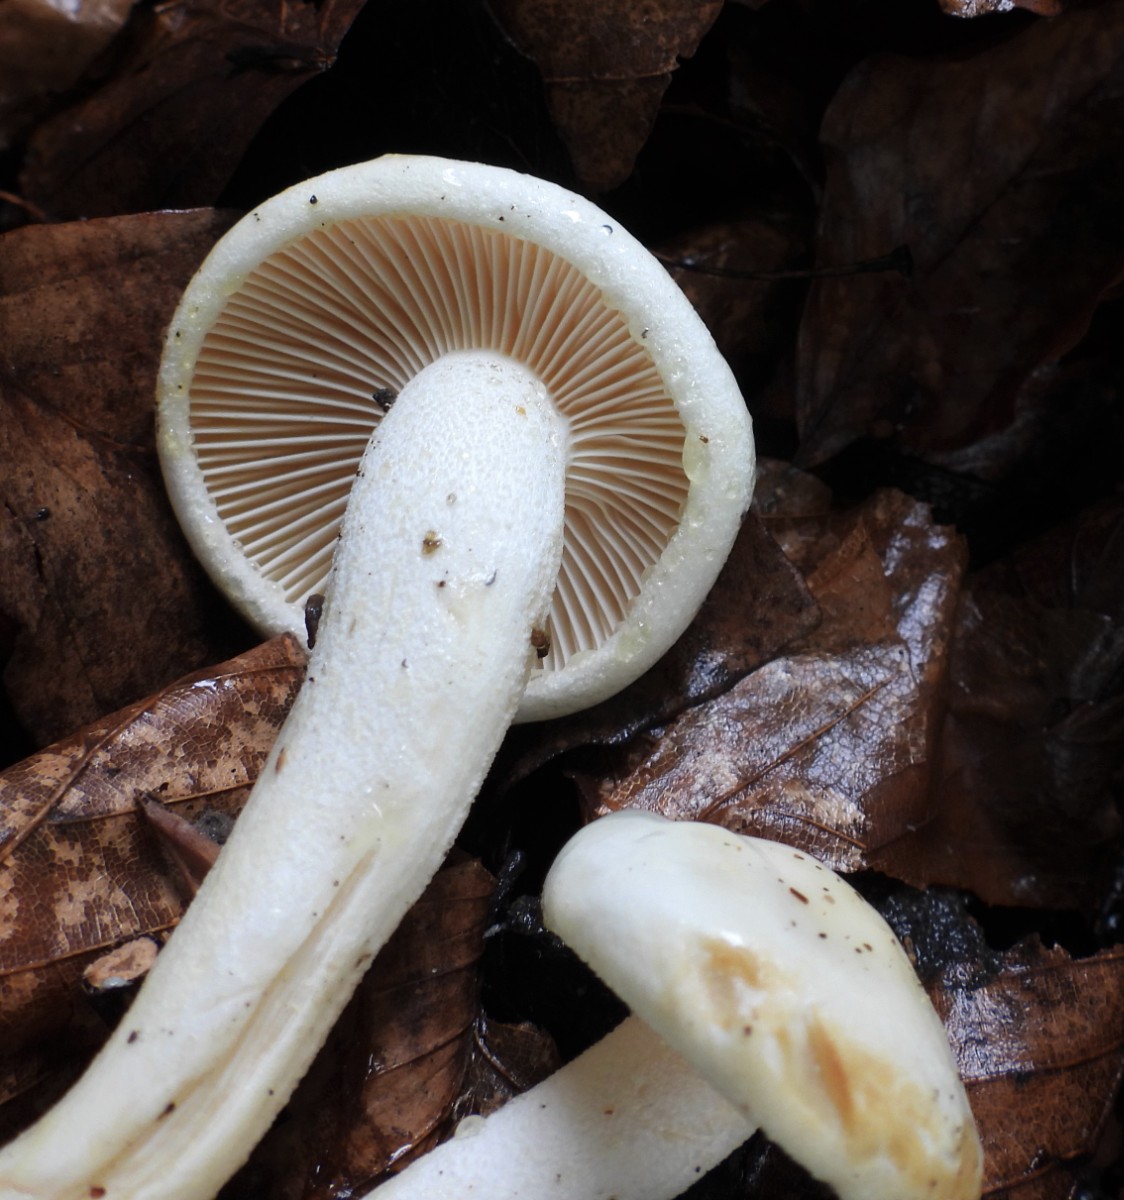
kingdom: Fungi
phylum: Basidiomycota
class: Agaricomycetes
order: Agaricales
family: Hygrophoraceae
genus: Hygrophorus
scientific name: Hygrophorus discoxanthus
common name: ildelugtende sneglehat
